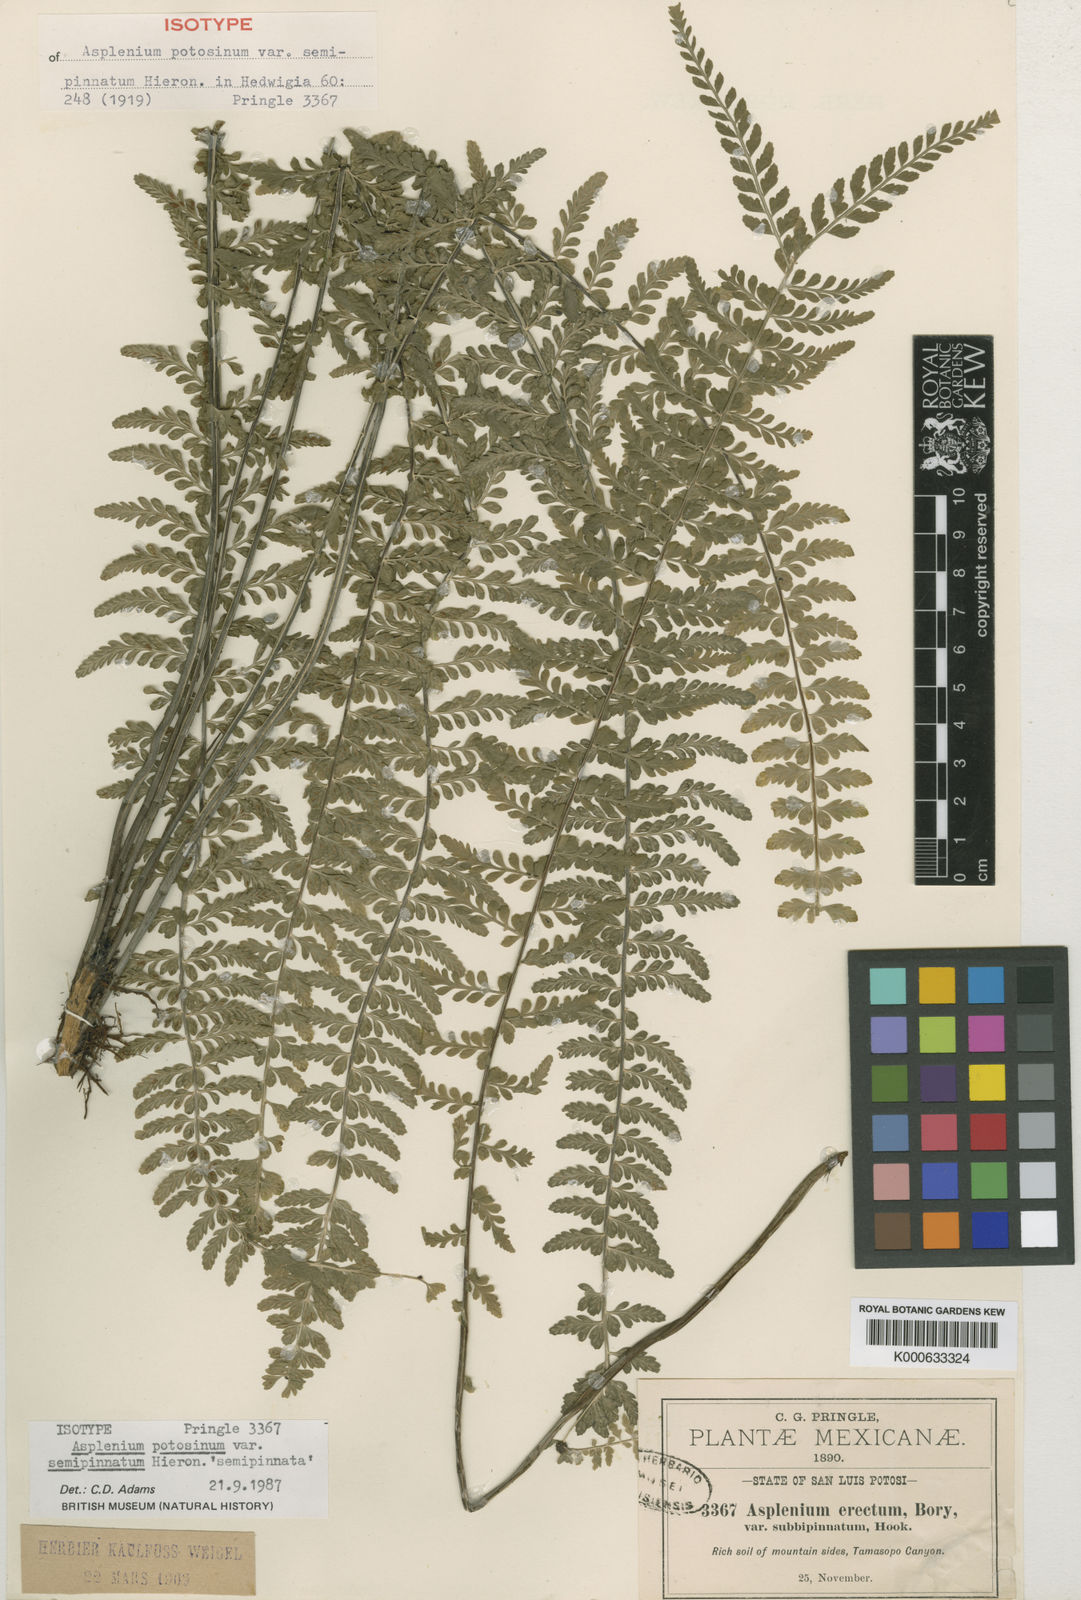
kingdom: Plantae
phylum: Tracheophyta
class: Polypodiopsida
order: Polypodiales
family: Aspleniaceae
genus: Asplenium
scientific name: Asplenium semipinnatum
